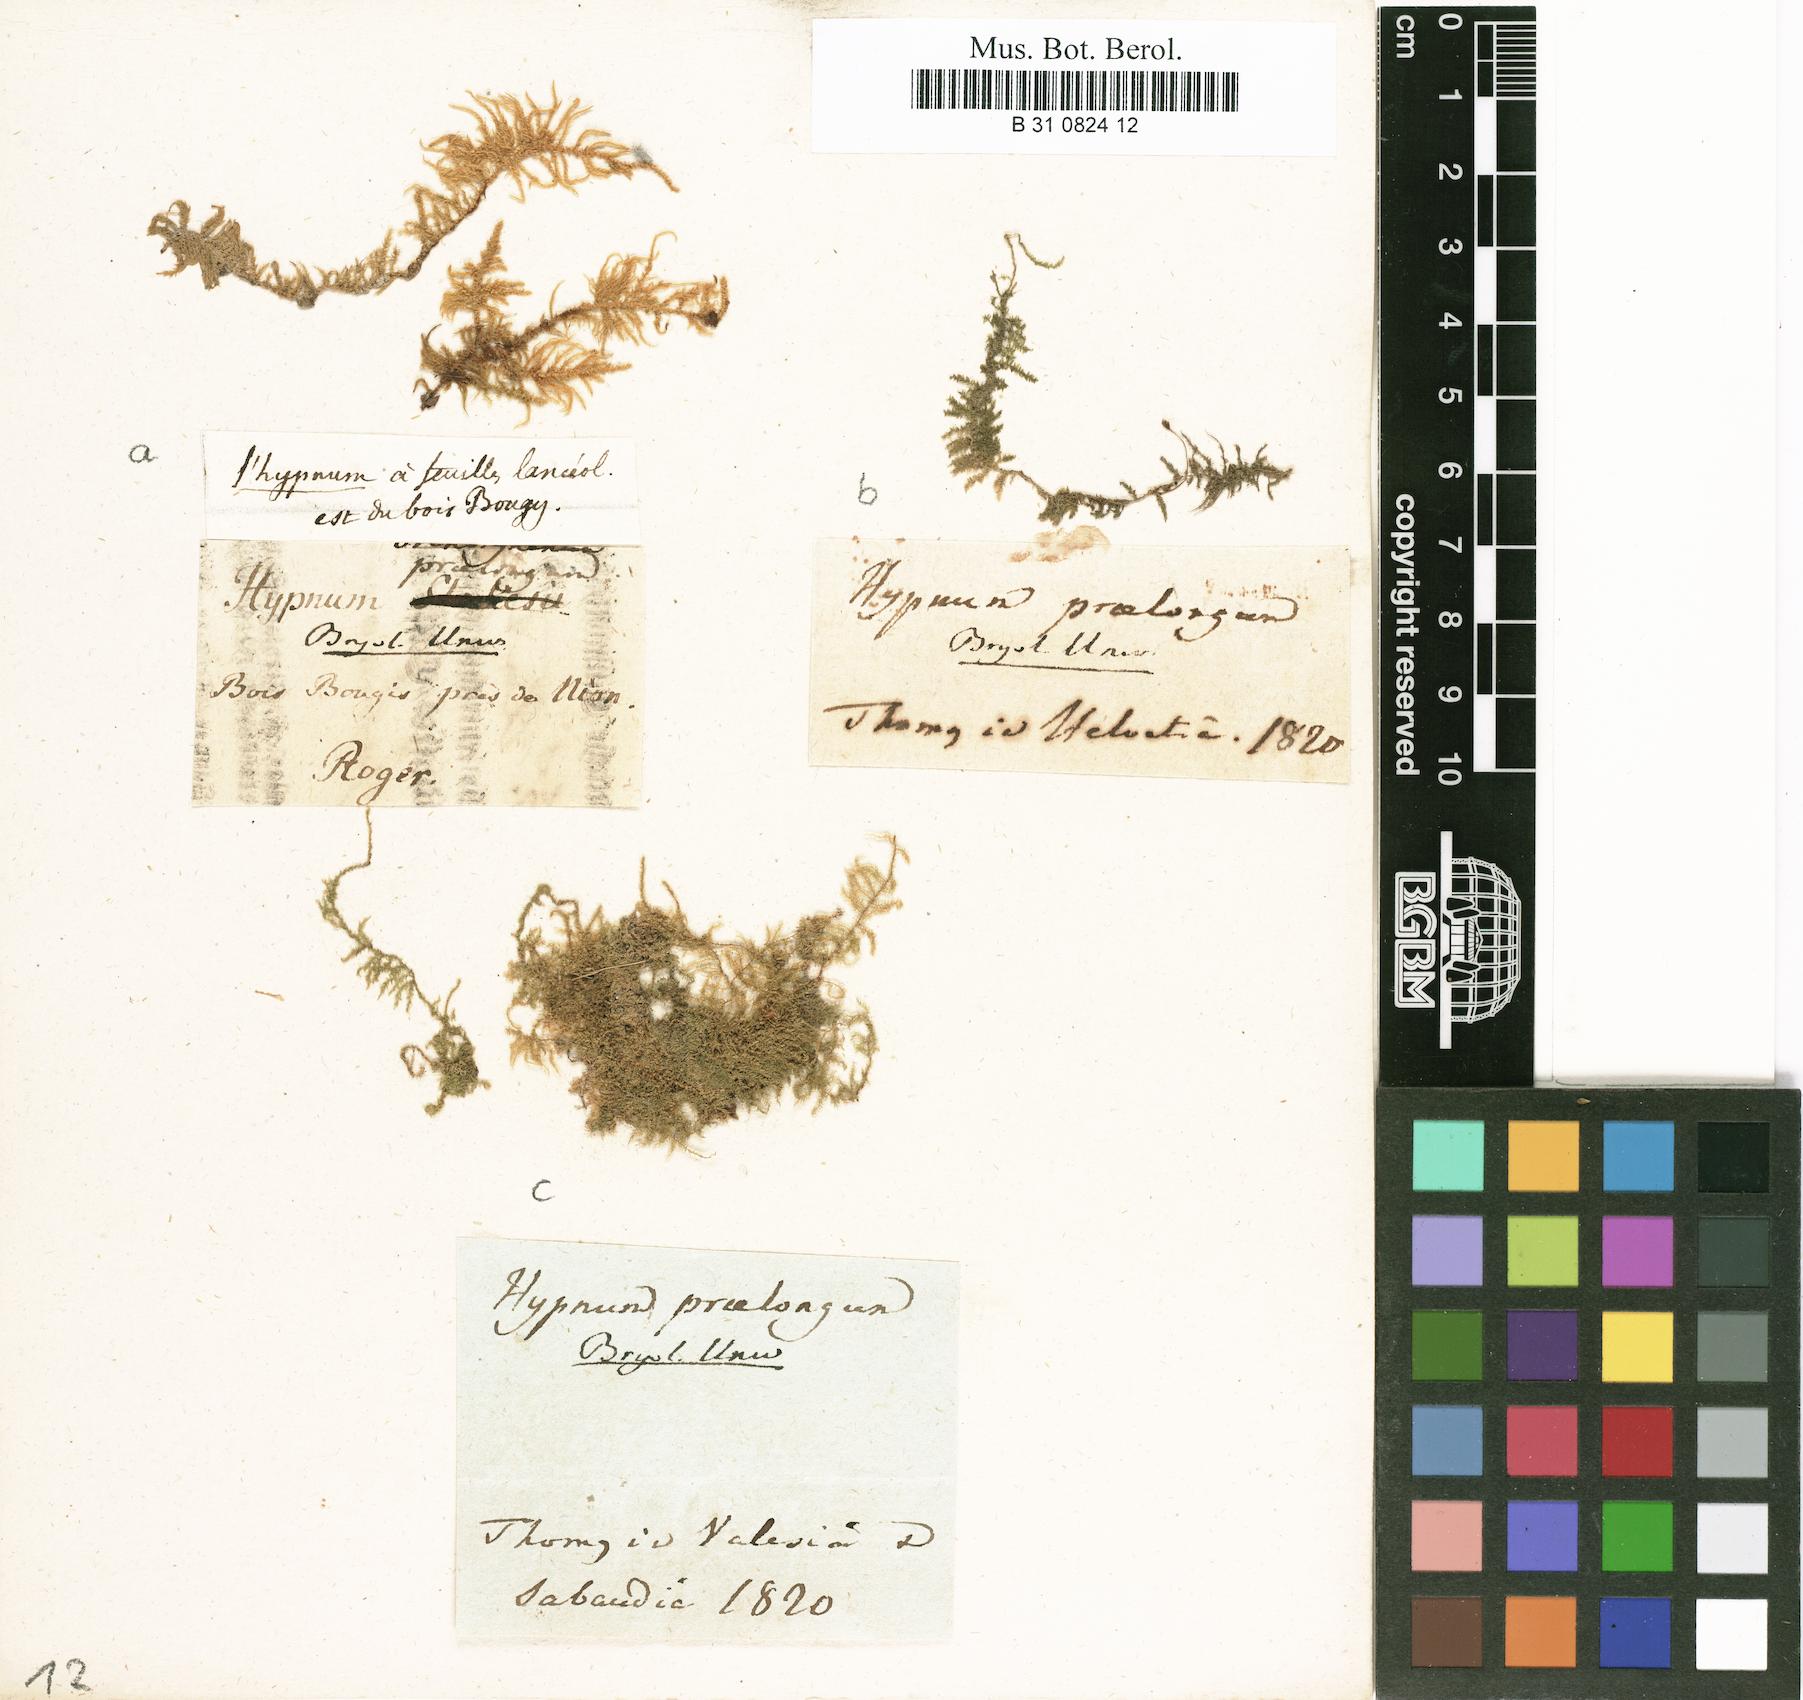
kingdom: Plantae
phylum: Bryophyta
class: Bryopsida
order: Hypnales
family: Brachytheciaceae
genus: Kindbergia
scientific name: Kindbergia praelonga
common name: Slender beaked moss
